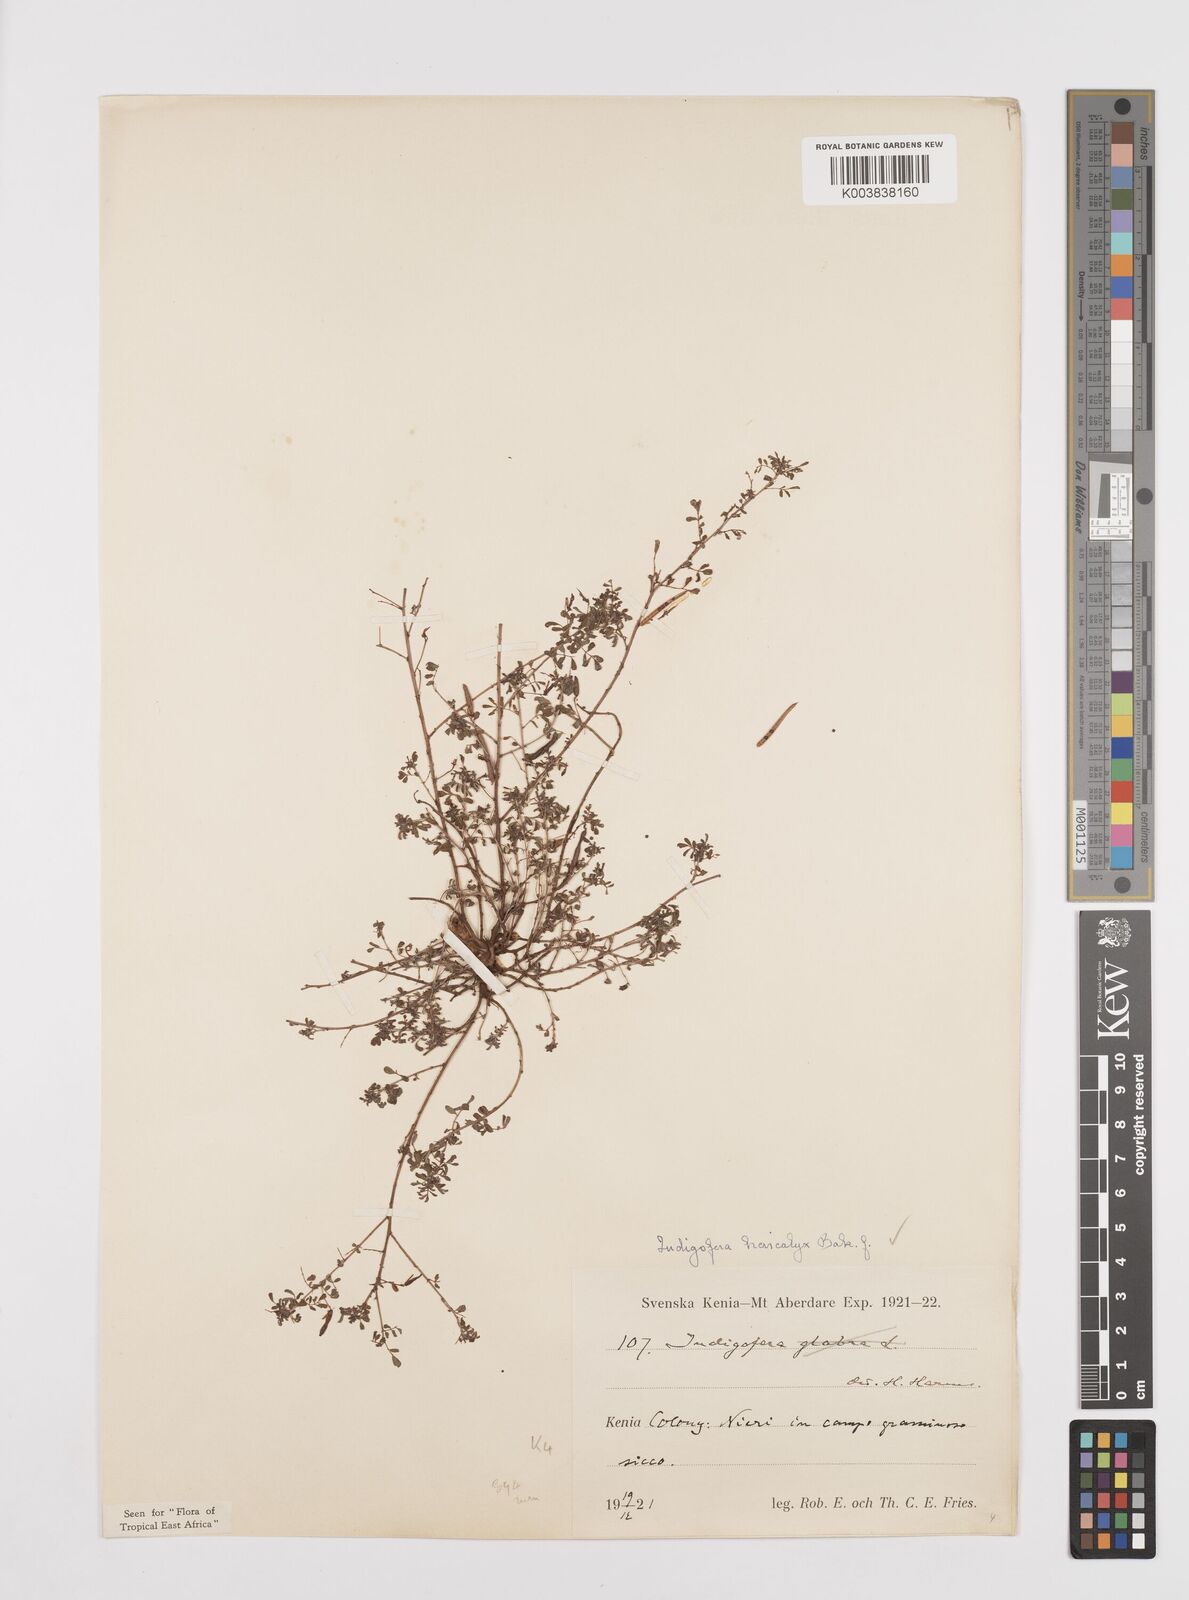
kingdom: Plantae
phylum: Tracheophyta
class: Magnoliopsida
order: Fabales
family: Fabaceae
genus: Indigofera
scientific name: Indigofera brevicalyx
